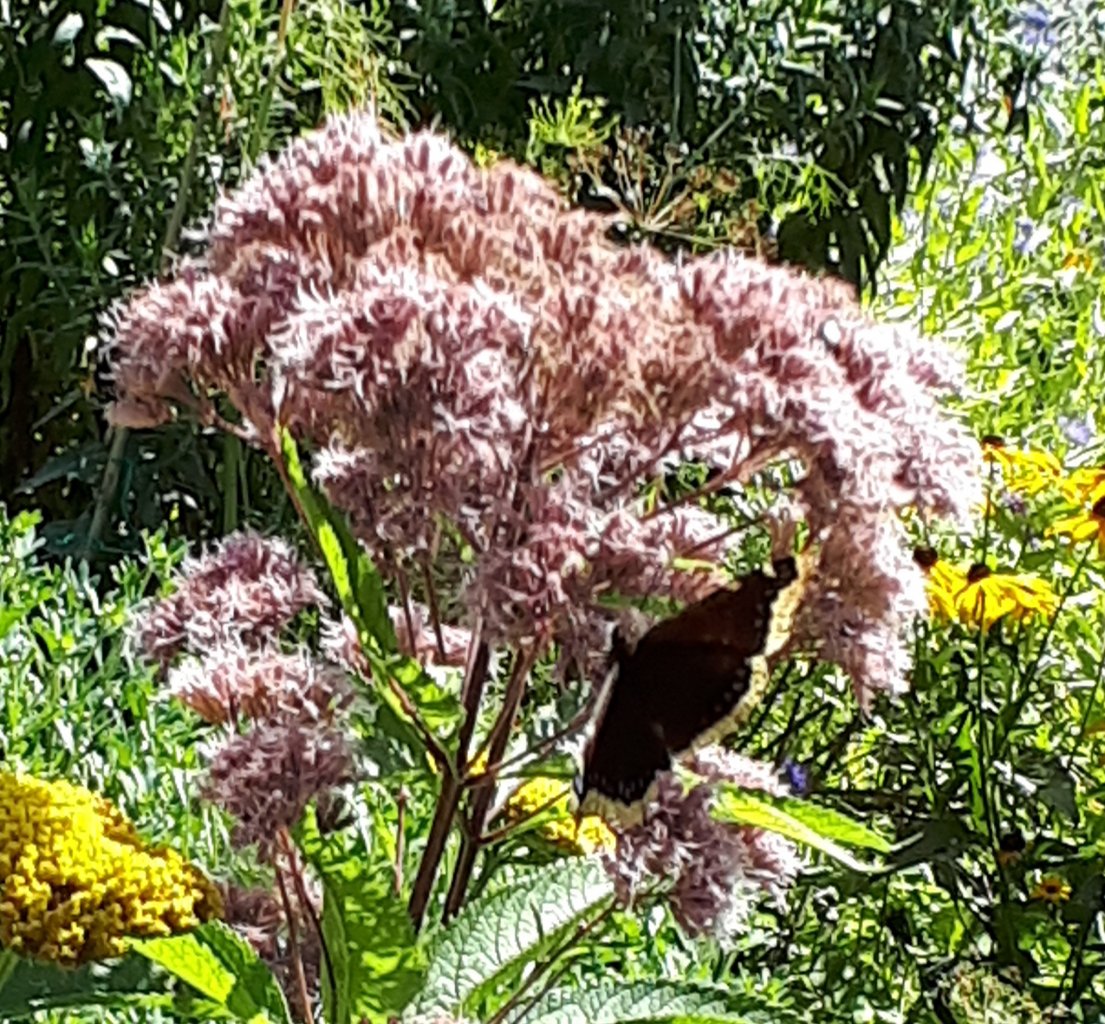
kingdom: Animalia
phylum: Arthropoda
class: Insecta
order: Lepidoptera
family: Nymphalidae
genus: Nymphalis
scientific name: Nymphalis antiopa
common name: Mourning Cloak
